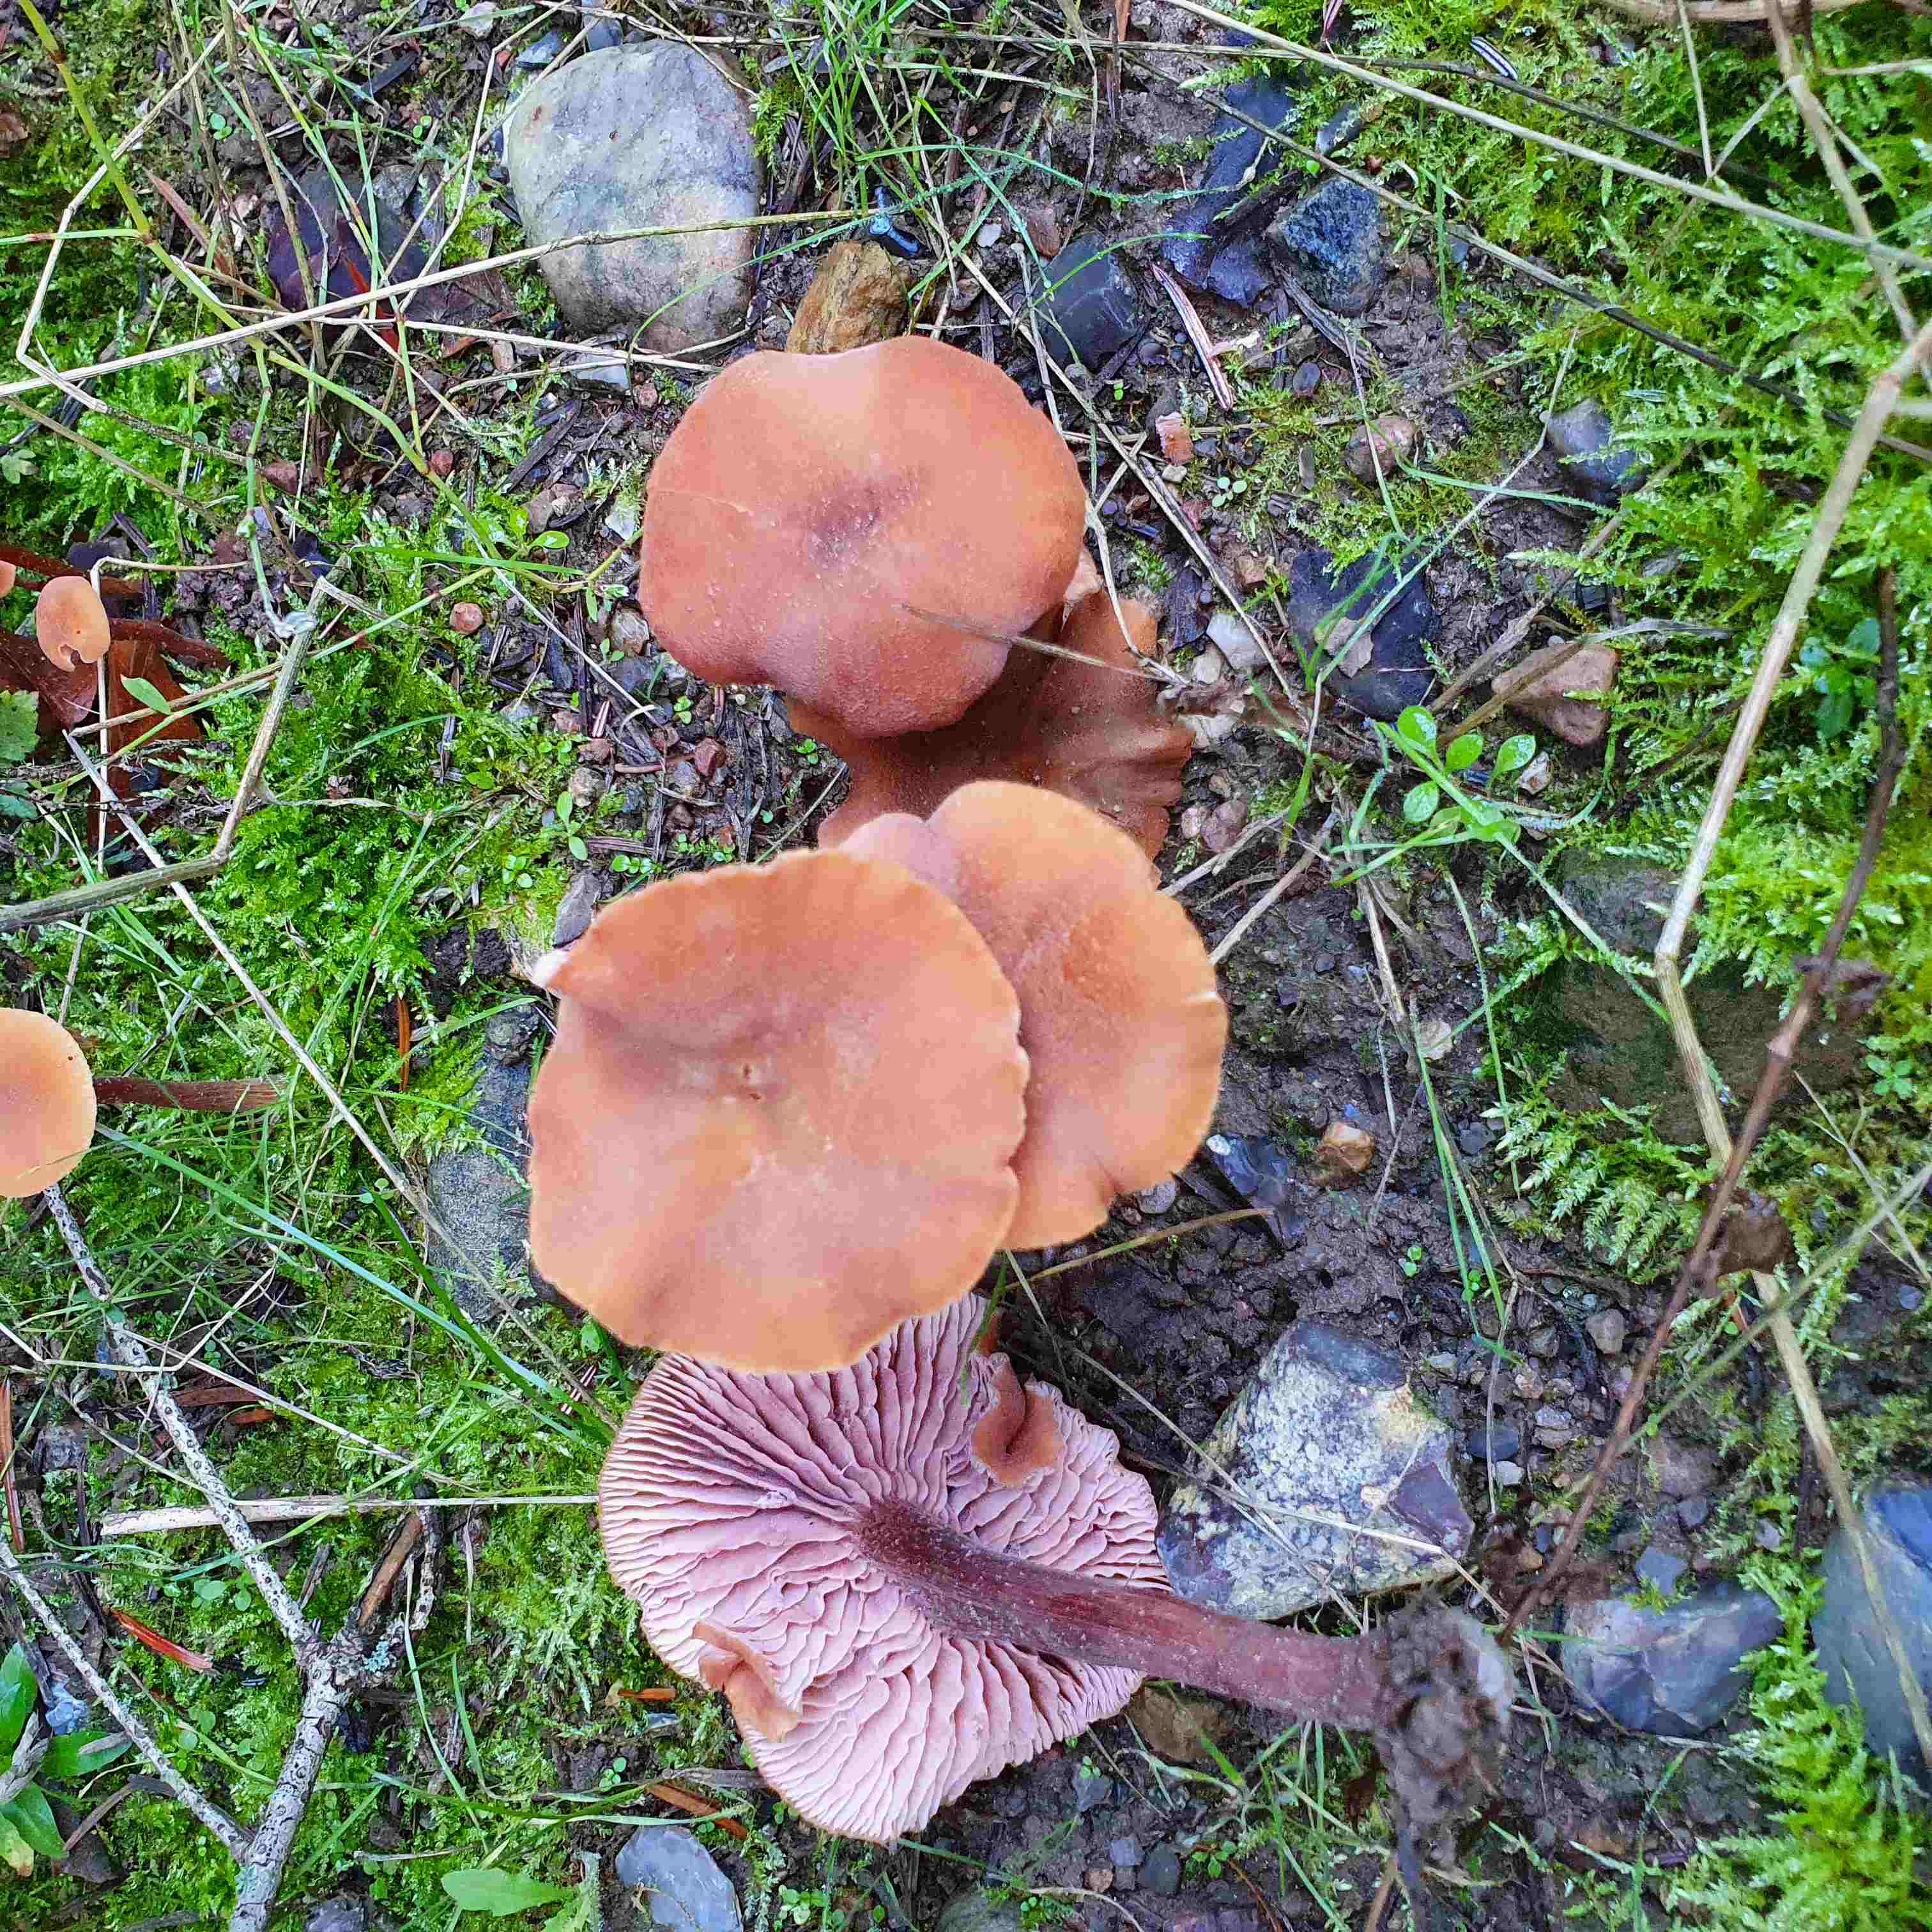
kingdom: Fungi
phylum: Basidiomycota
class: Agaricomycetes
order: Agaricales
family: Hydnangiaceae
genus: Laccaria
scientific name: Laccaria proxima
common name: stor ametysthat
